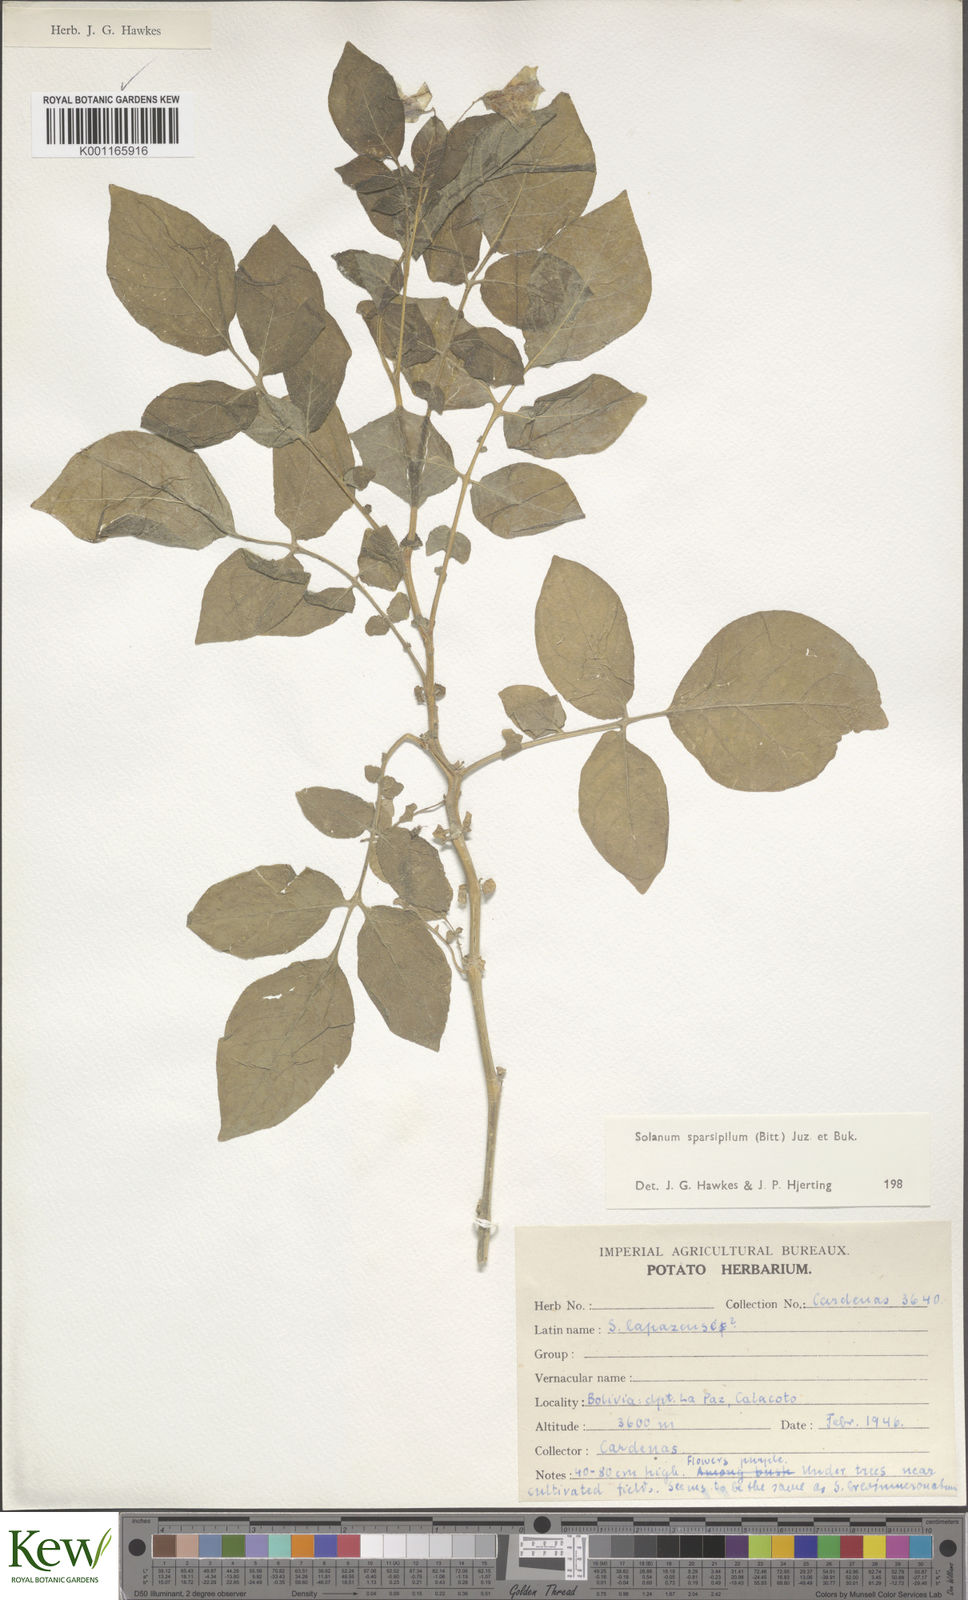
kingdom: Plantae
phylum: Tracheophyta
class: Magnoliopsida
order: Solanales
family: Solanaceae
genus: Solanum
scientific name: Solanum brevicaule
